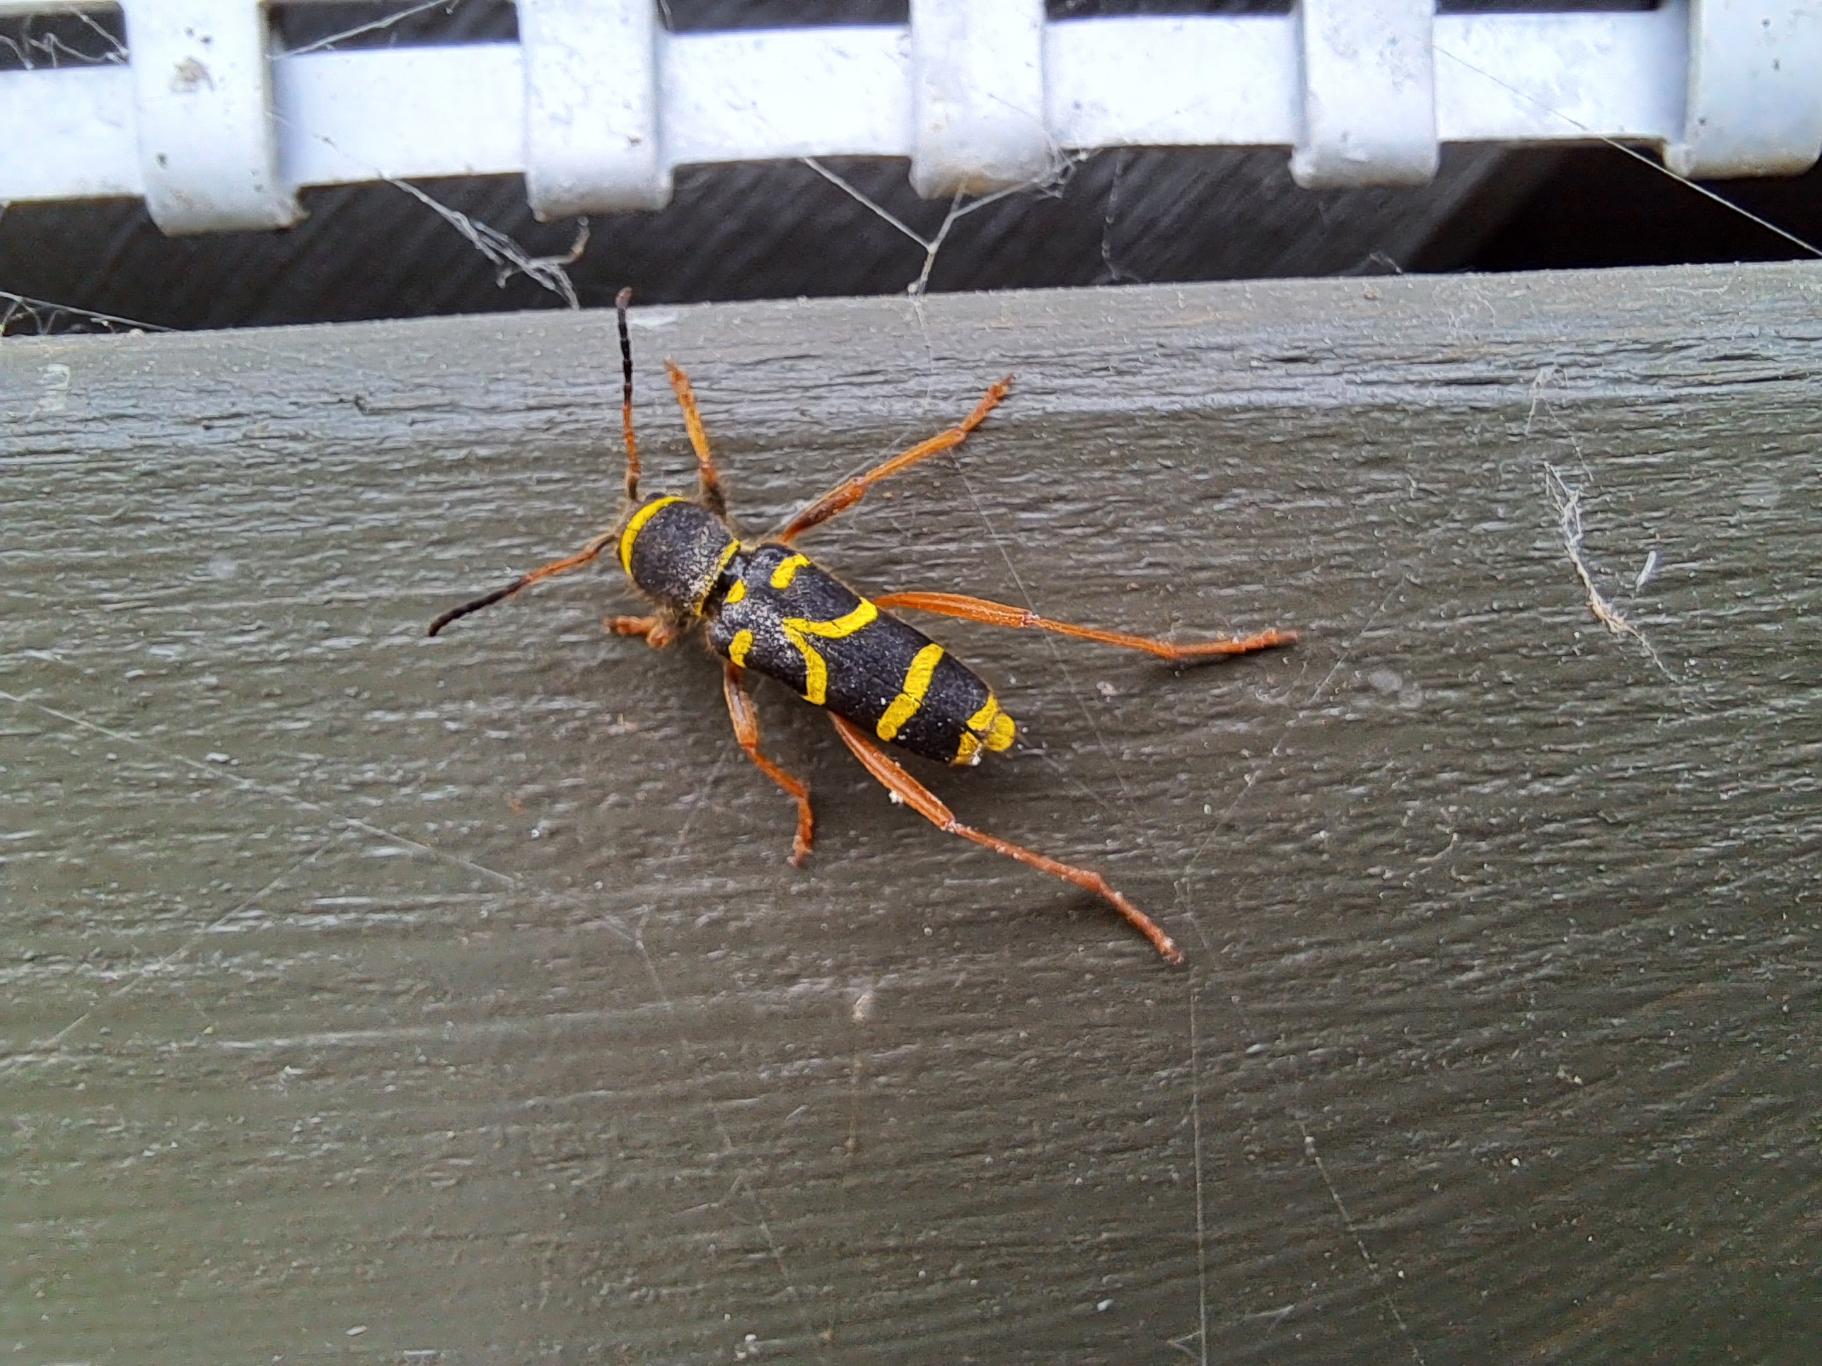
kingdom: Animalia
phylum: Arthropoda
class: Insecta
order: Coleoptera
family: Cerambycidae
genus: Clytus
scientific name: Clytus arietis
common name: Lille hvepsebuk
